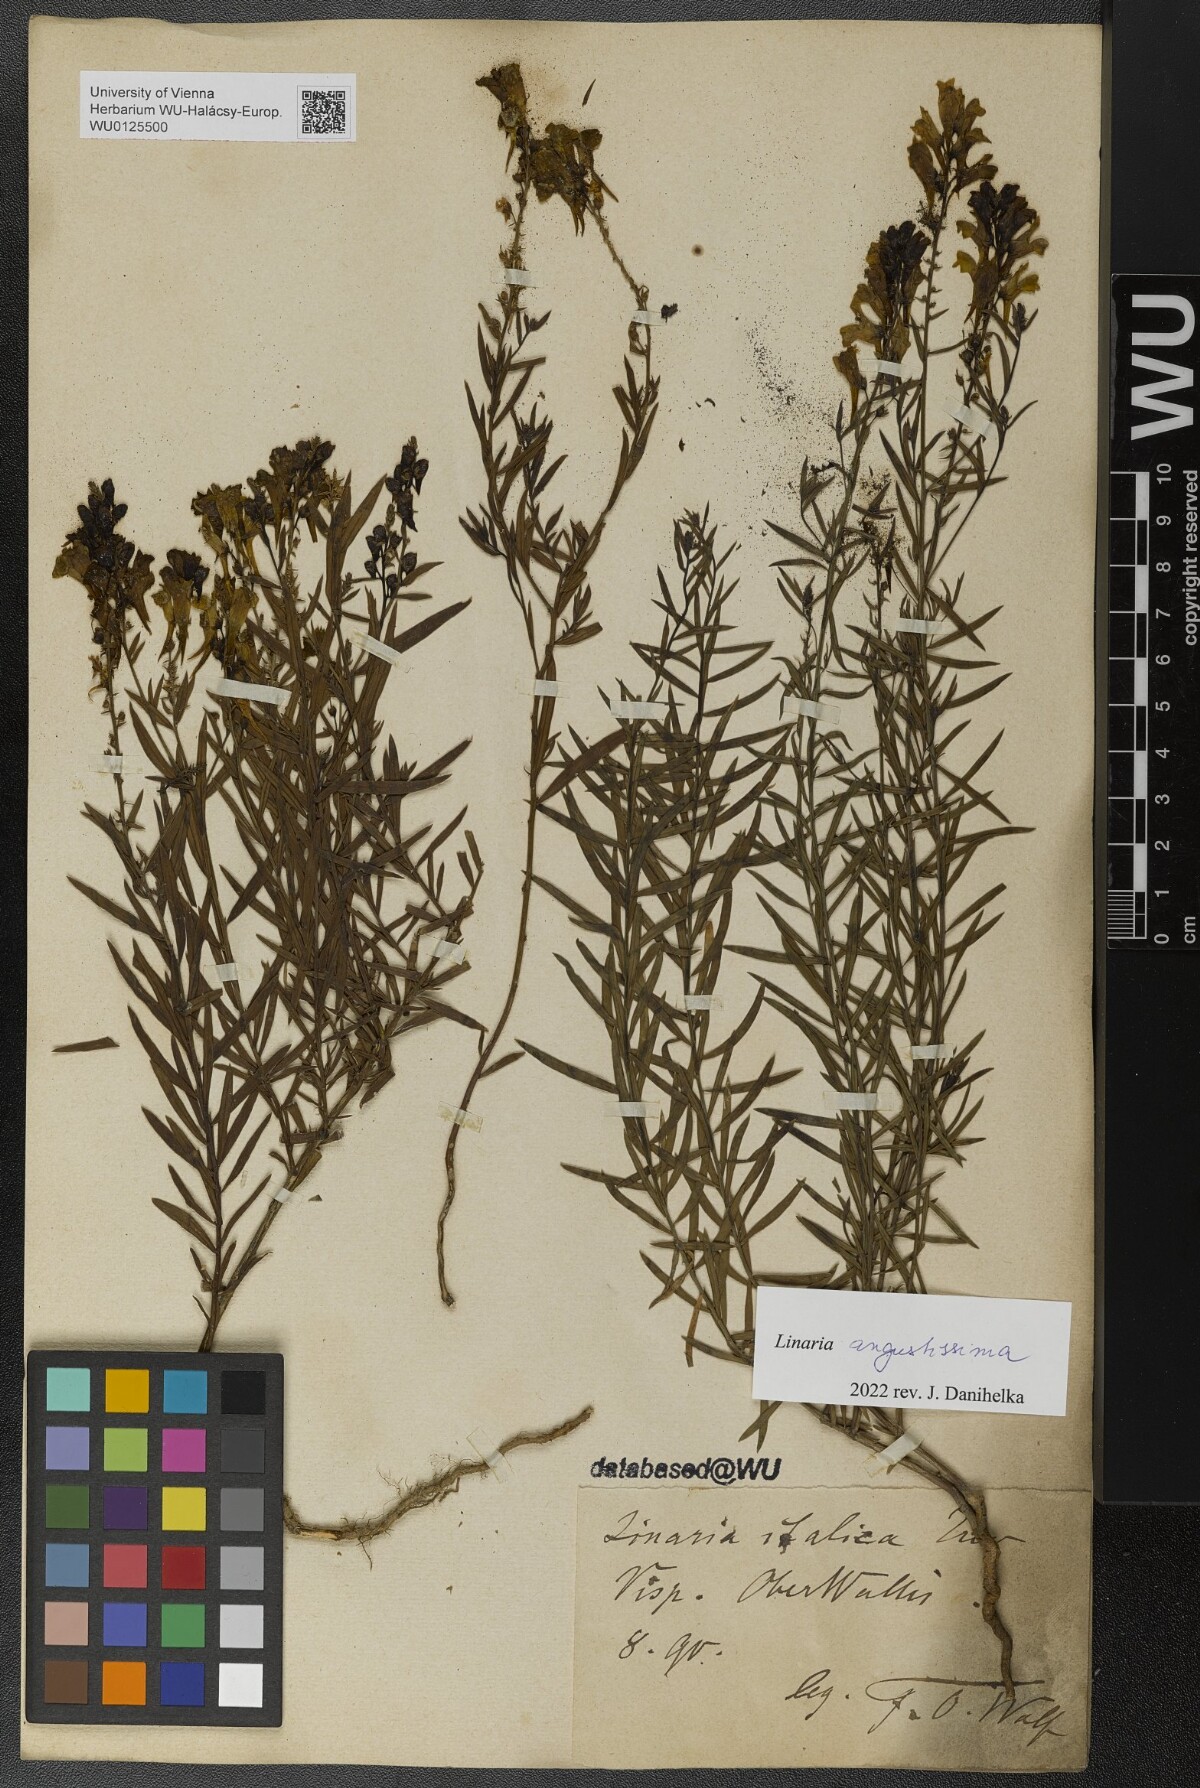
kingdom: Plantae
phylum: Tracheophyta
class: Magnoliopsida
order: Lamiales
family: Plantaginaceae
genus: Linaria
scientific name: Linaria angustissima
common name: Italian toadflax
